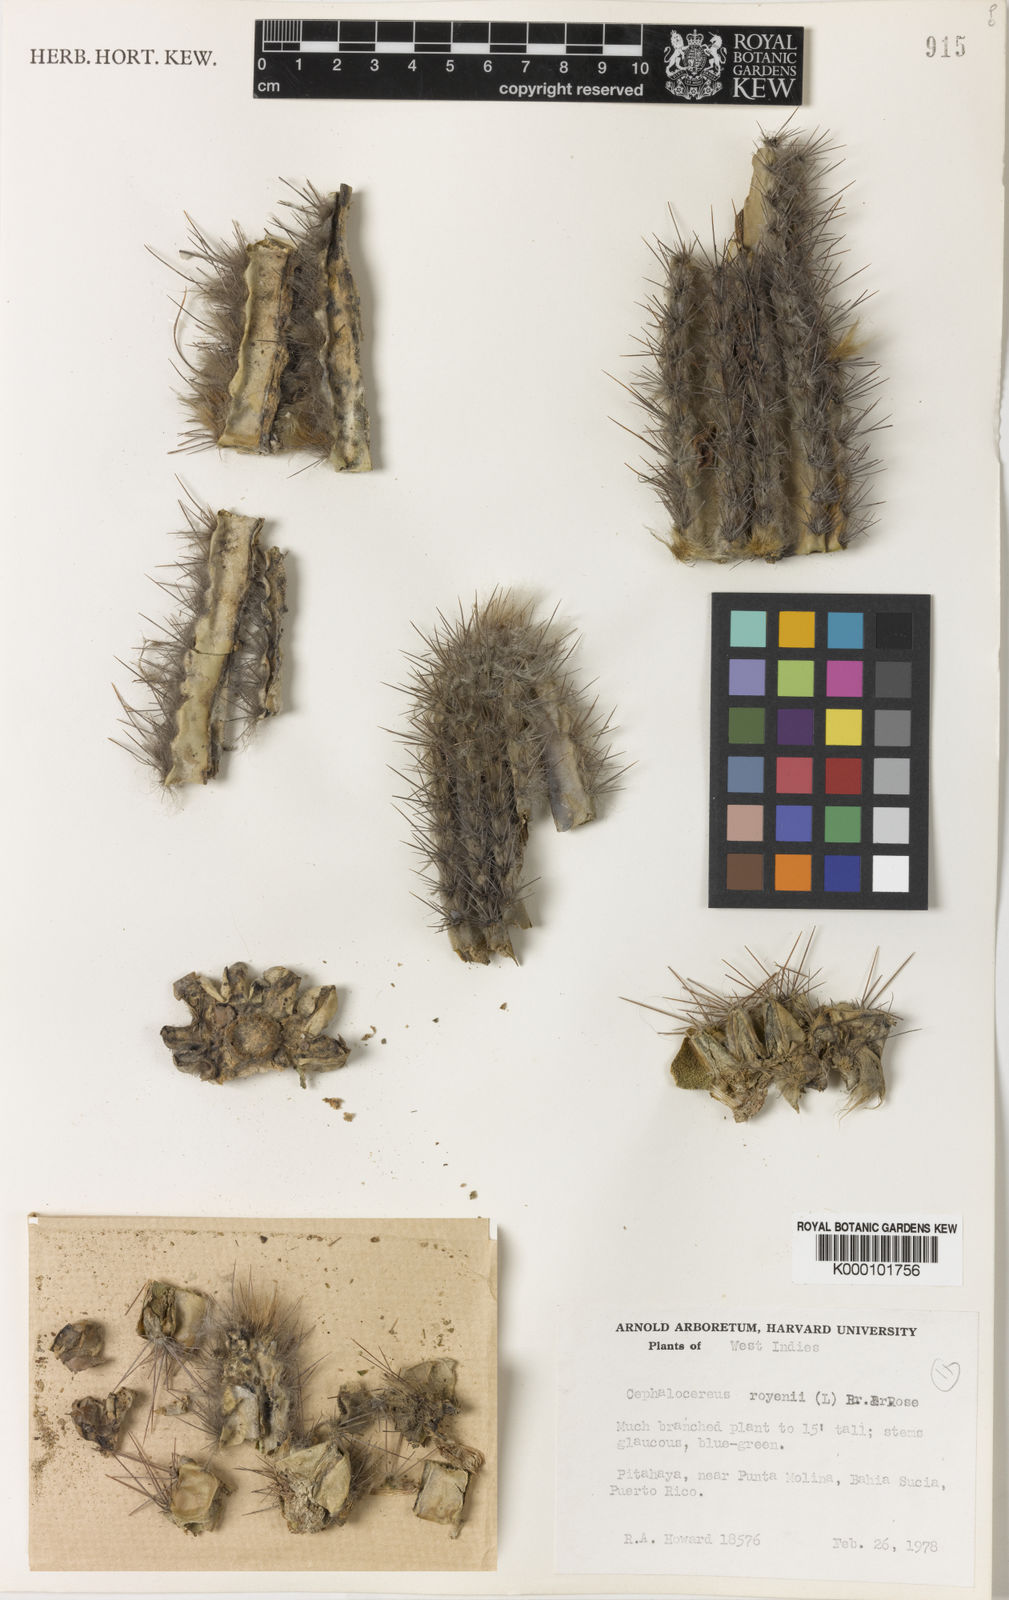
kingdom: Plantae
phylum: Tracheophyta
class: Magnoliopsida
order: Caryophyllales
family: Cactaceae
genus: Pilosocereus
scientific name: Pilosocereus polygonus
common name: Key tree cactus
